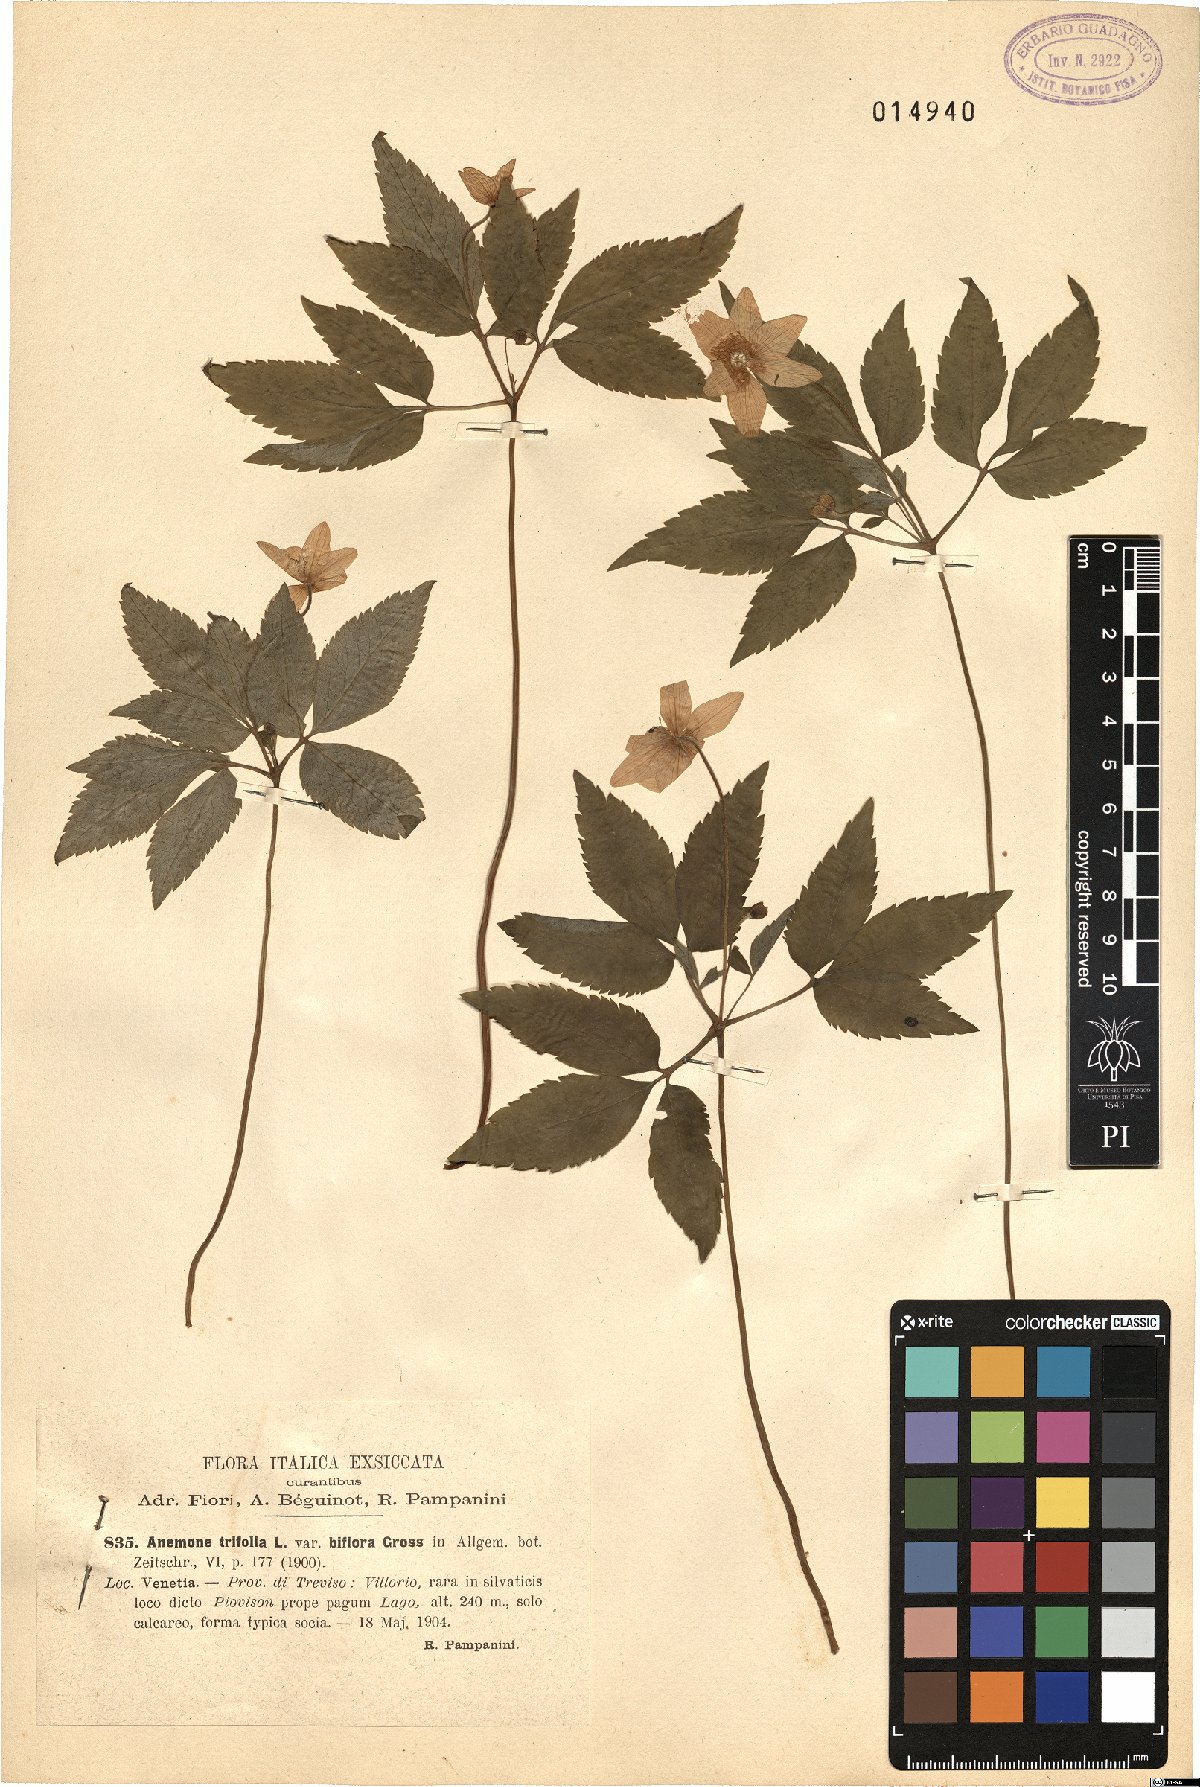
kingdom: Plantae
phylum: Tracheophyta
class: Magnoliopsida
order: Ranunculales
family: Ranunculaceae
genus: Anemone
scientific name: Anemone trifolia
